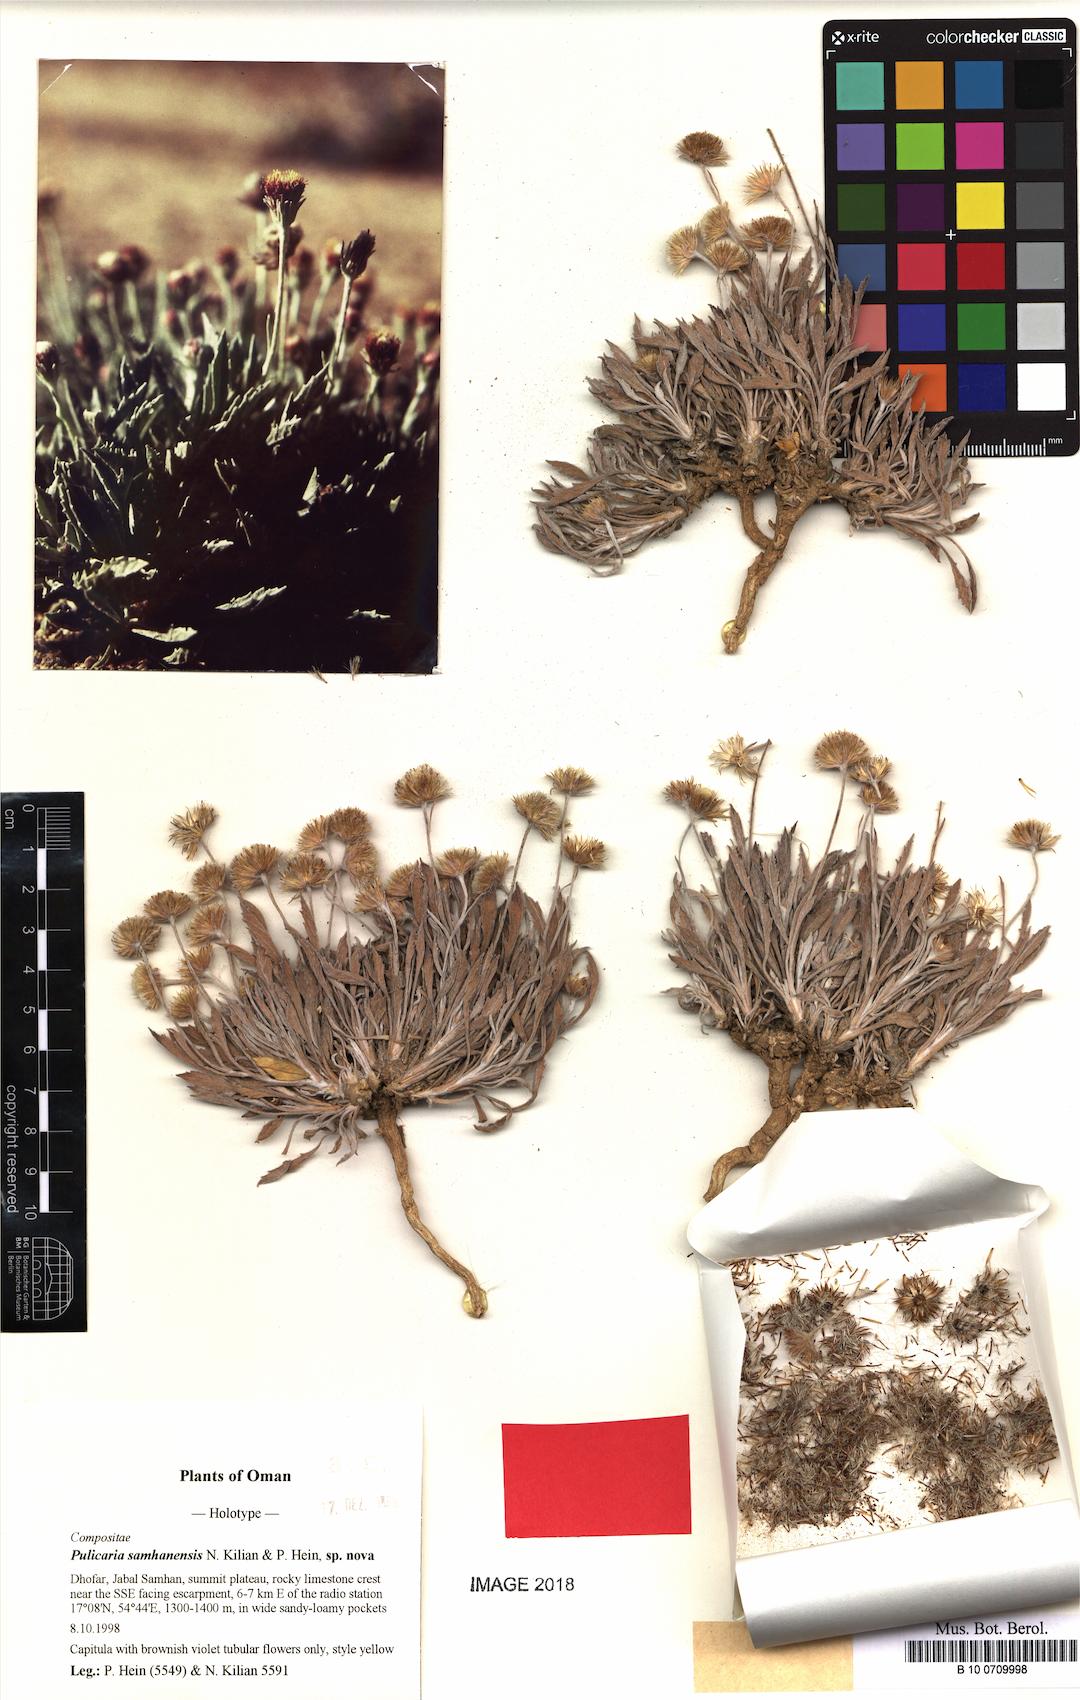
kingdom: Plantae
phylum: Tracheophyta
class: Magnoliopsida
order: Asterales
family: Asteraceae
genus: Pulicaria
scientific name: Pulicaria samhanensis
